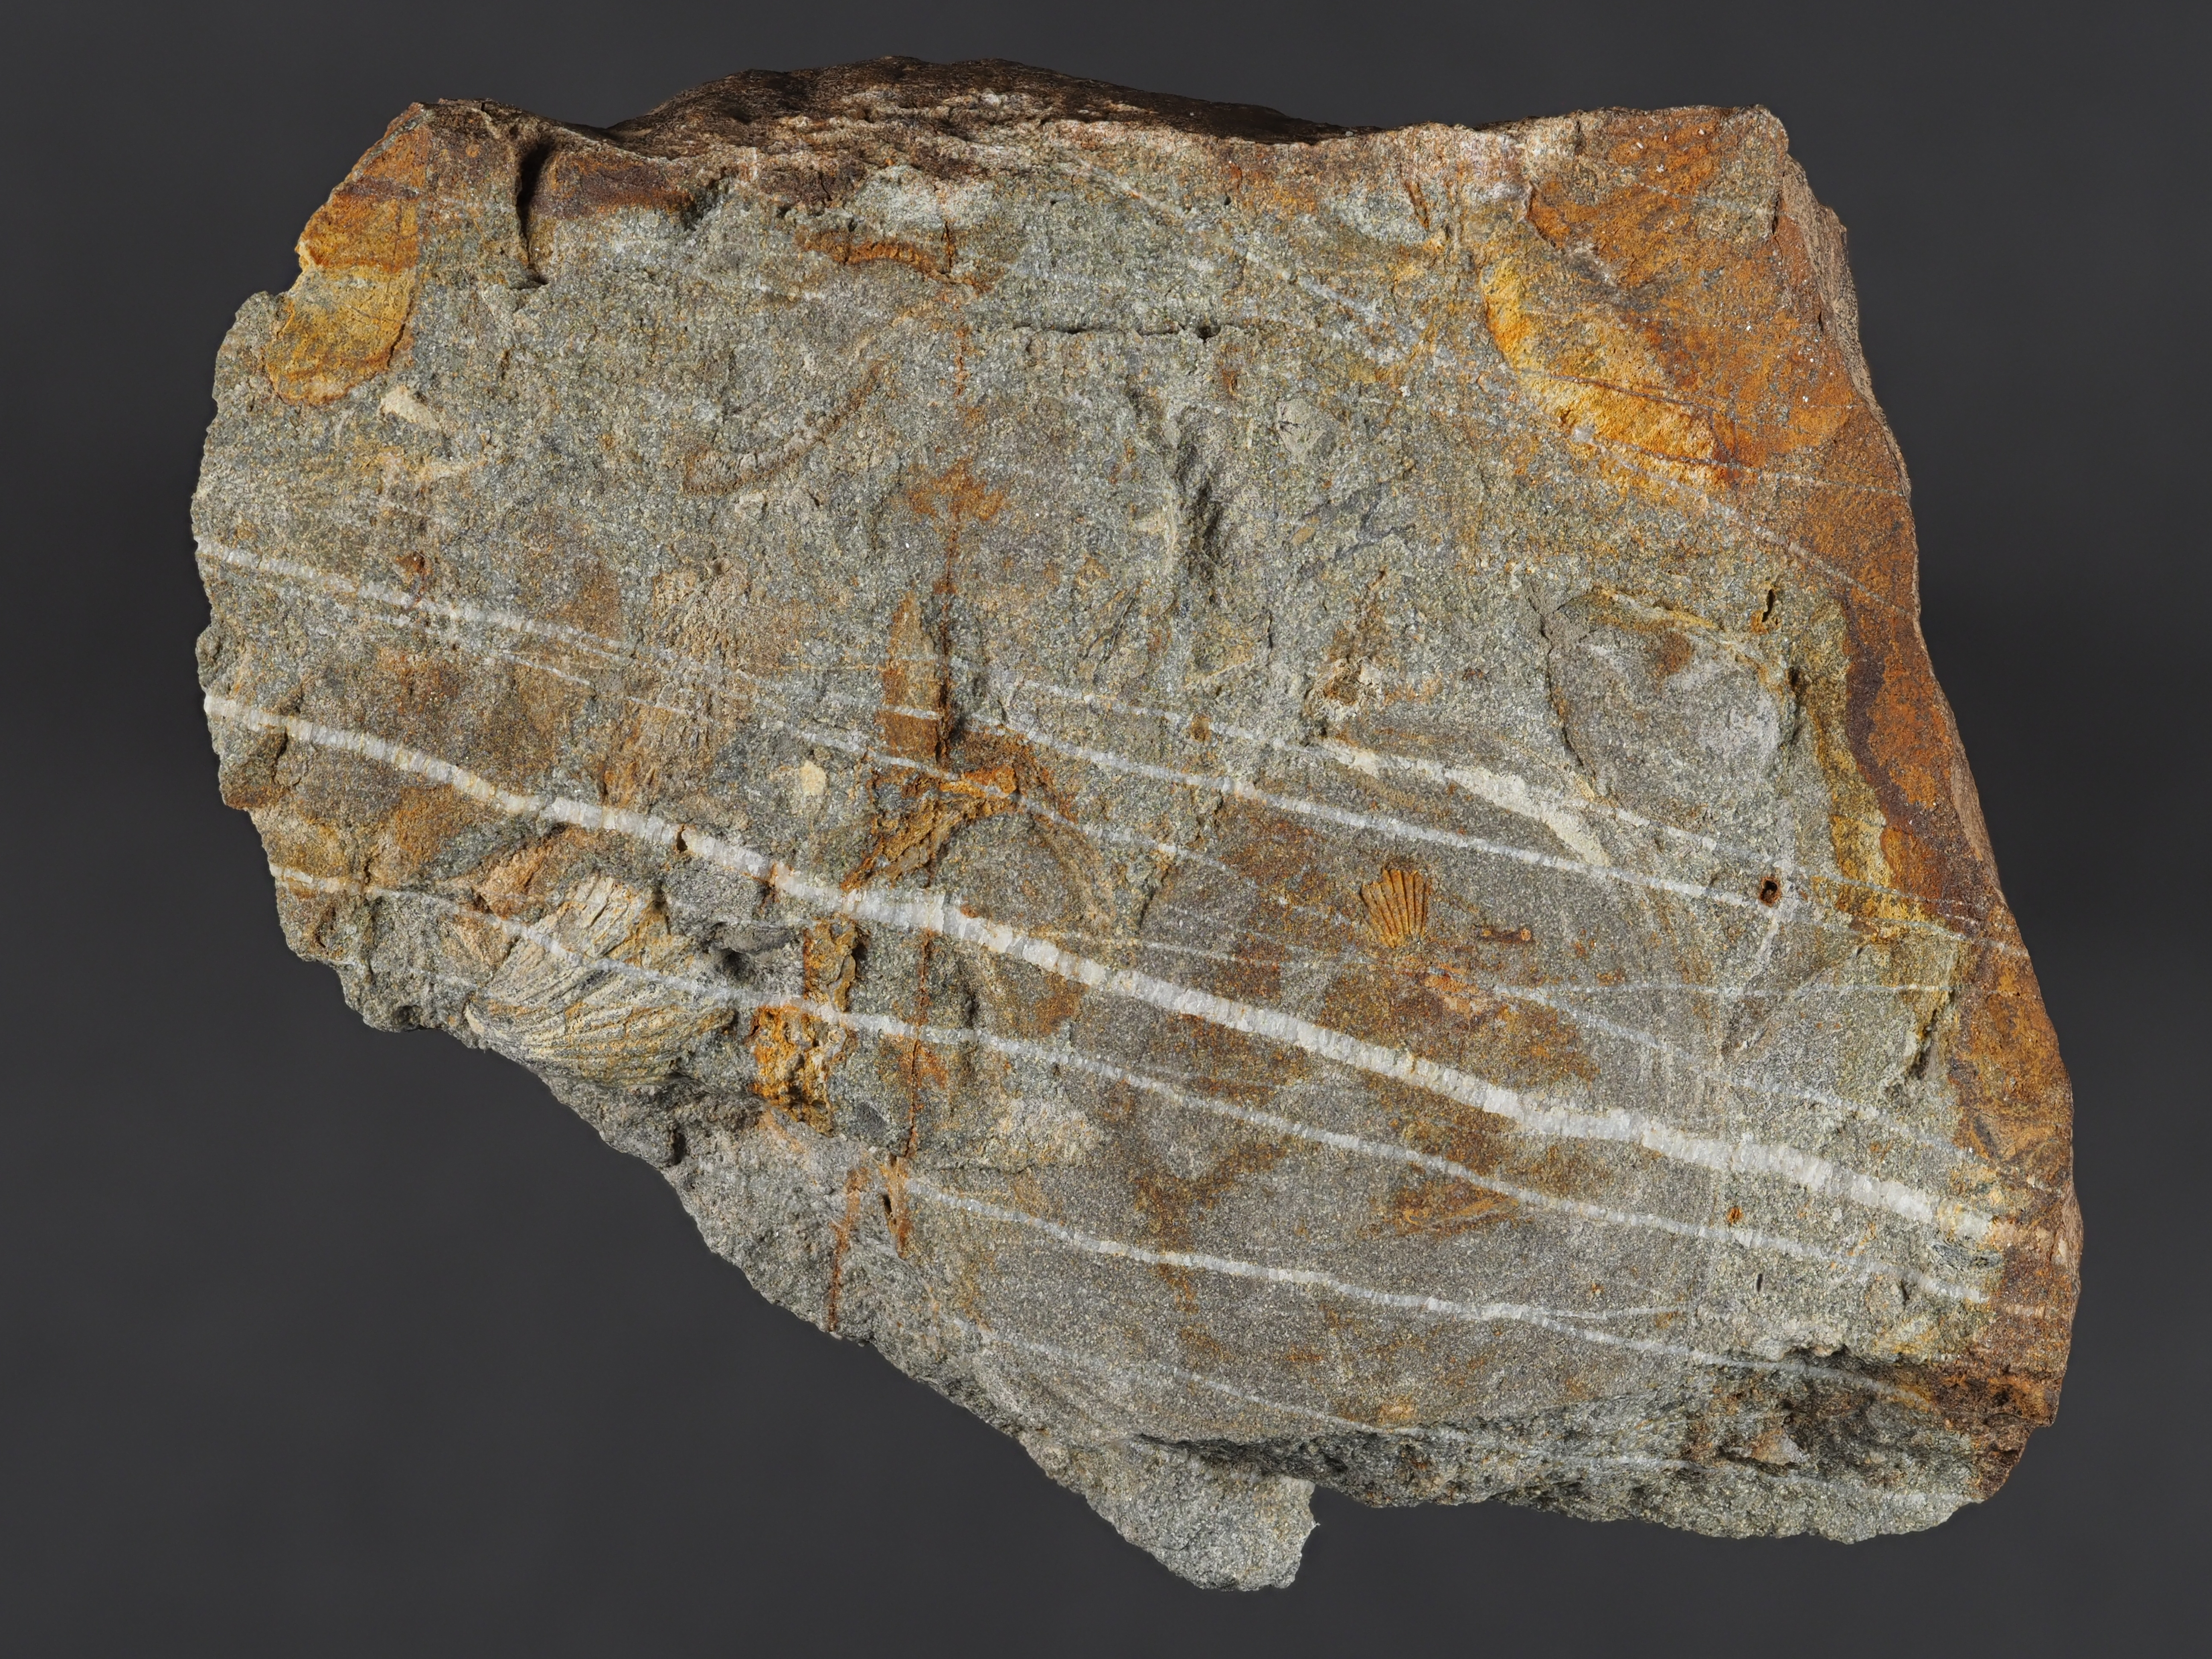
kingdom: Animalia
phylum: Brachiopoda
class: Rhynchonellata
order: Rhynchonellida
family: Trigonirhynchiidae
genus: Oligoptycherhynchus
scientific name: Oligoptycherhynchus
